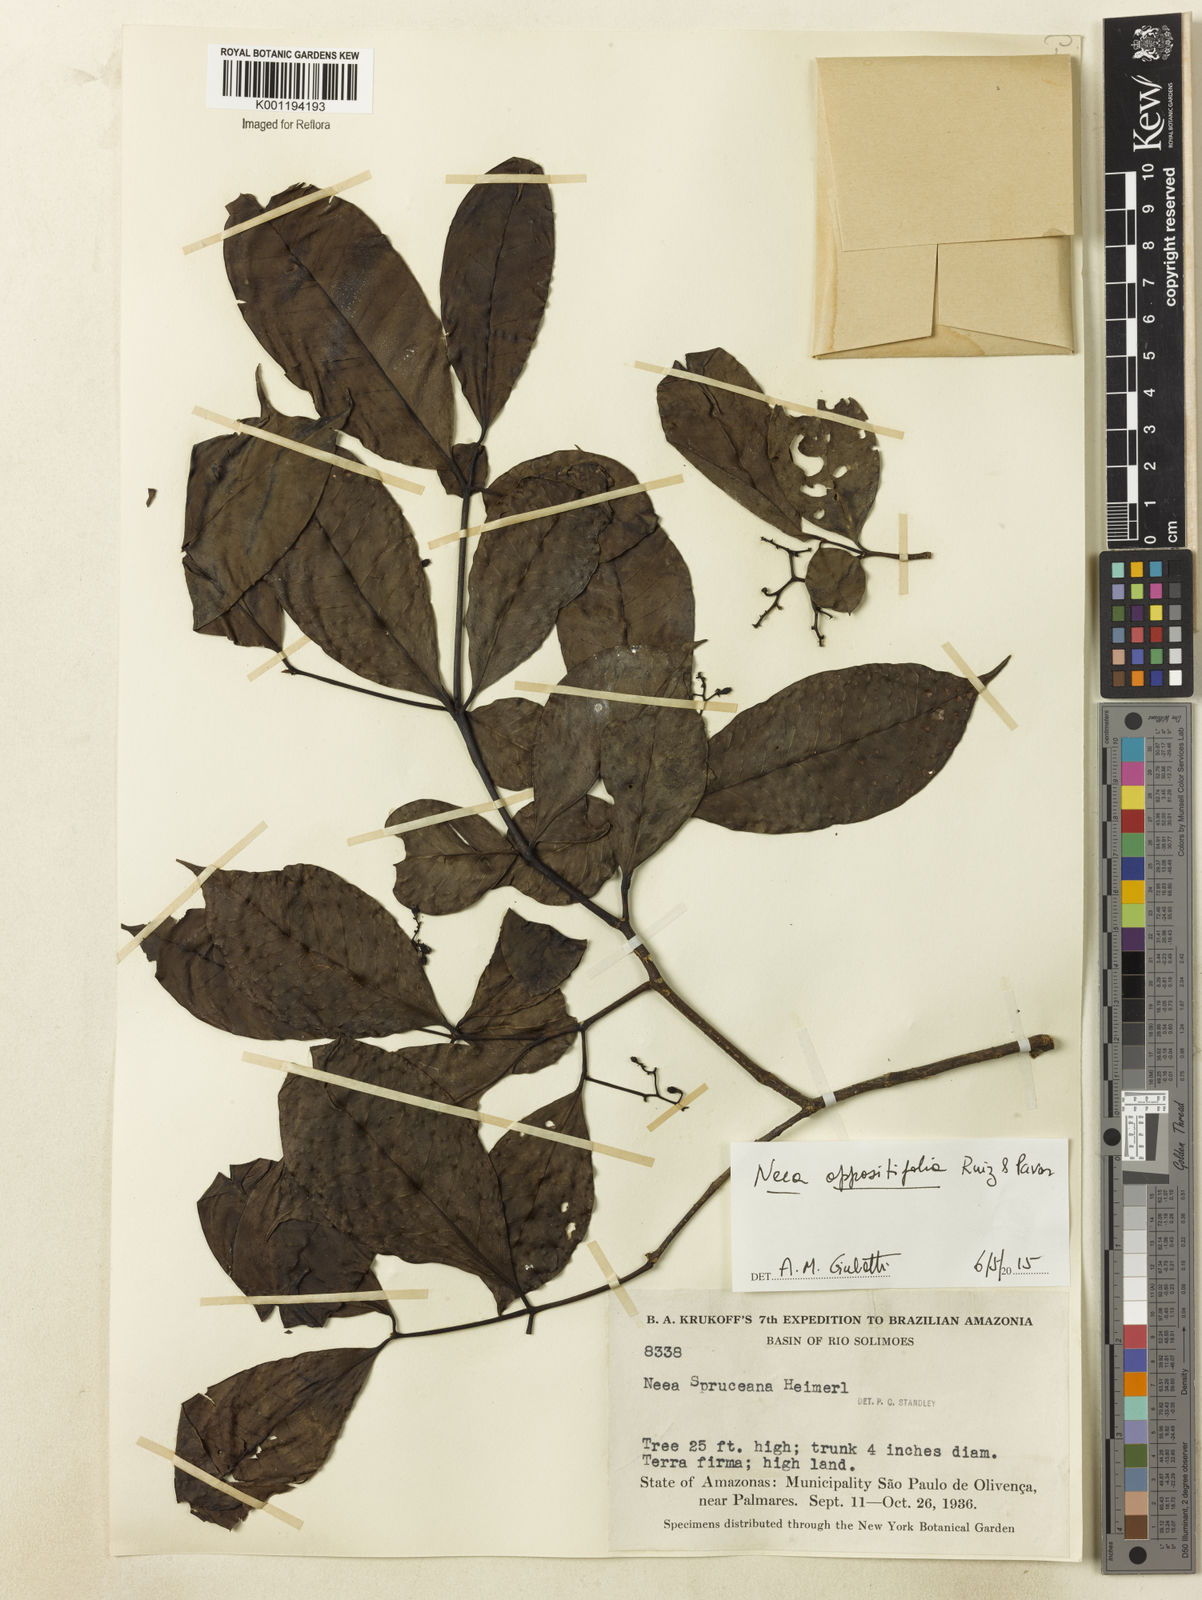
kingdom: Plantae
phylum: Tracheophyta
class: Magnoliopsida
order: Caryophyllales
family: Nyctaginaceae
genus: Neea
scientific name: Neea oppositifolia
